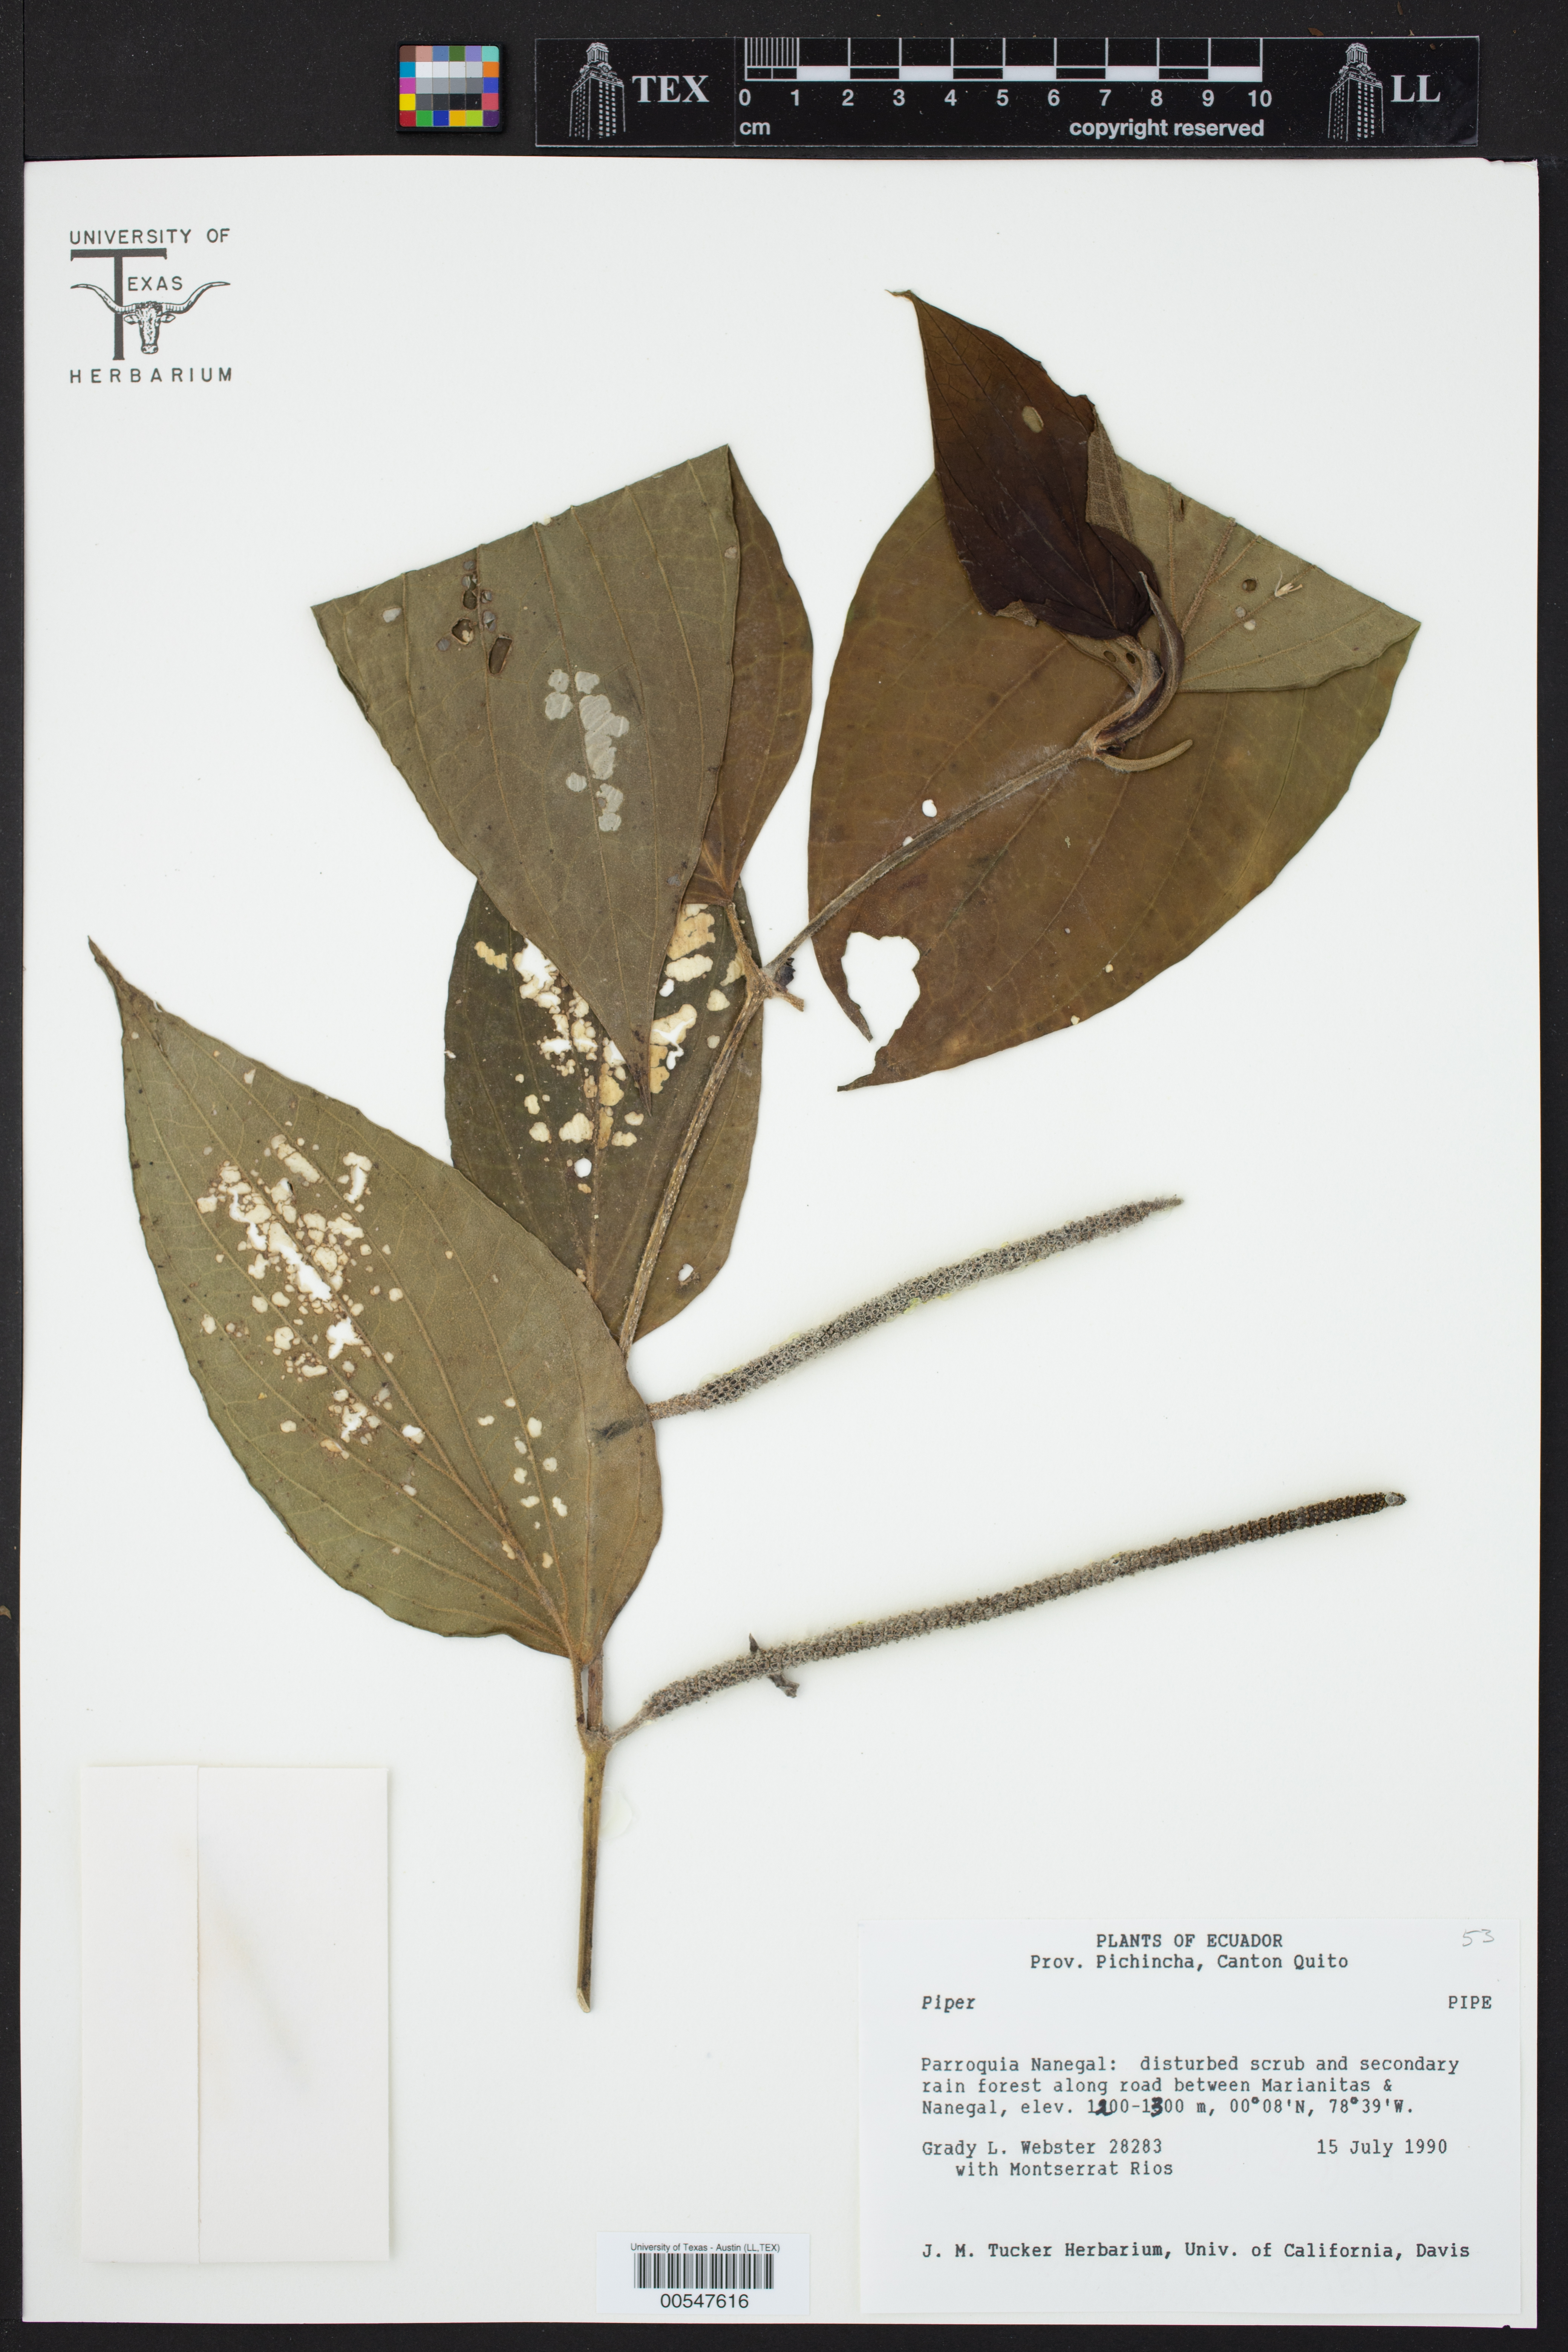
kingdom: Plantae
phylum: Tracheophyta
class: Magnoliopsida
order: Piperales
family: Piperaceae
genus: Piper
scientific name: Piper
